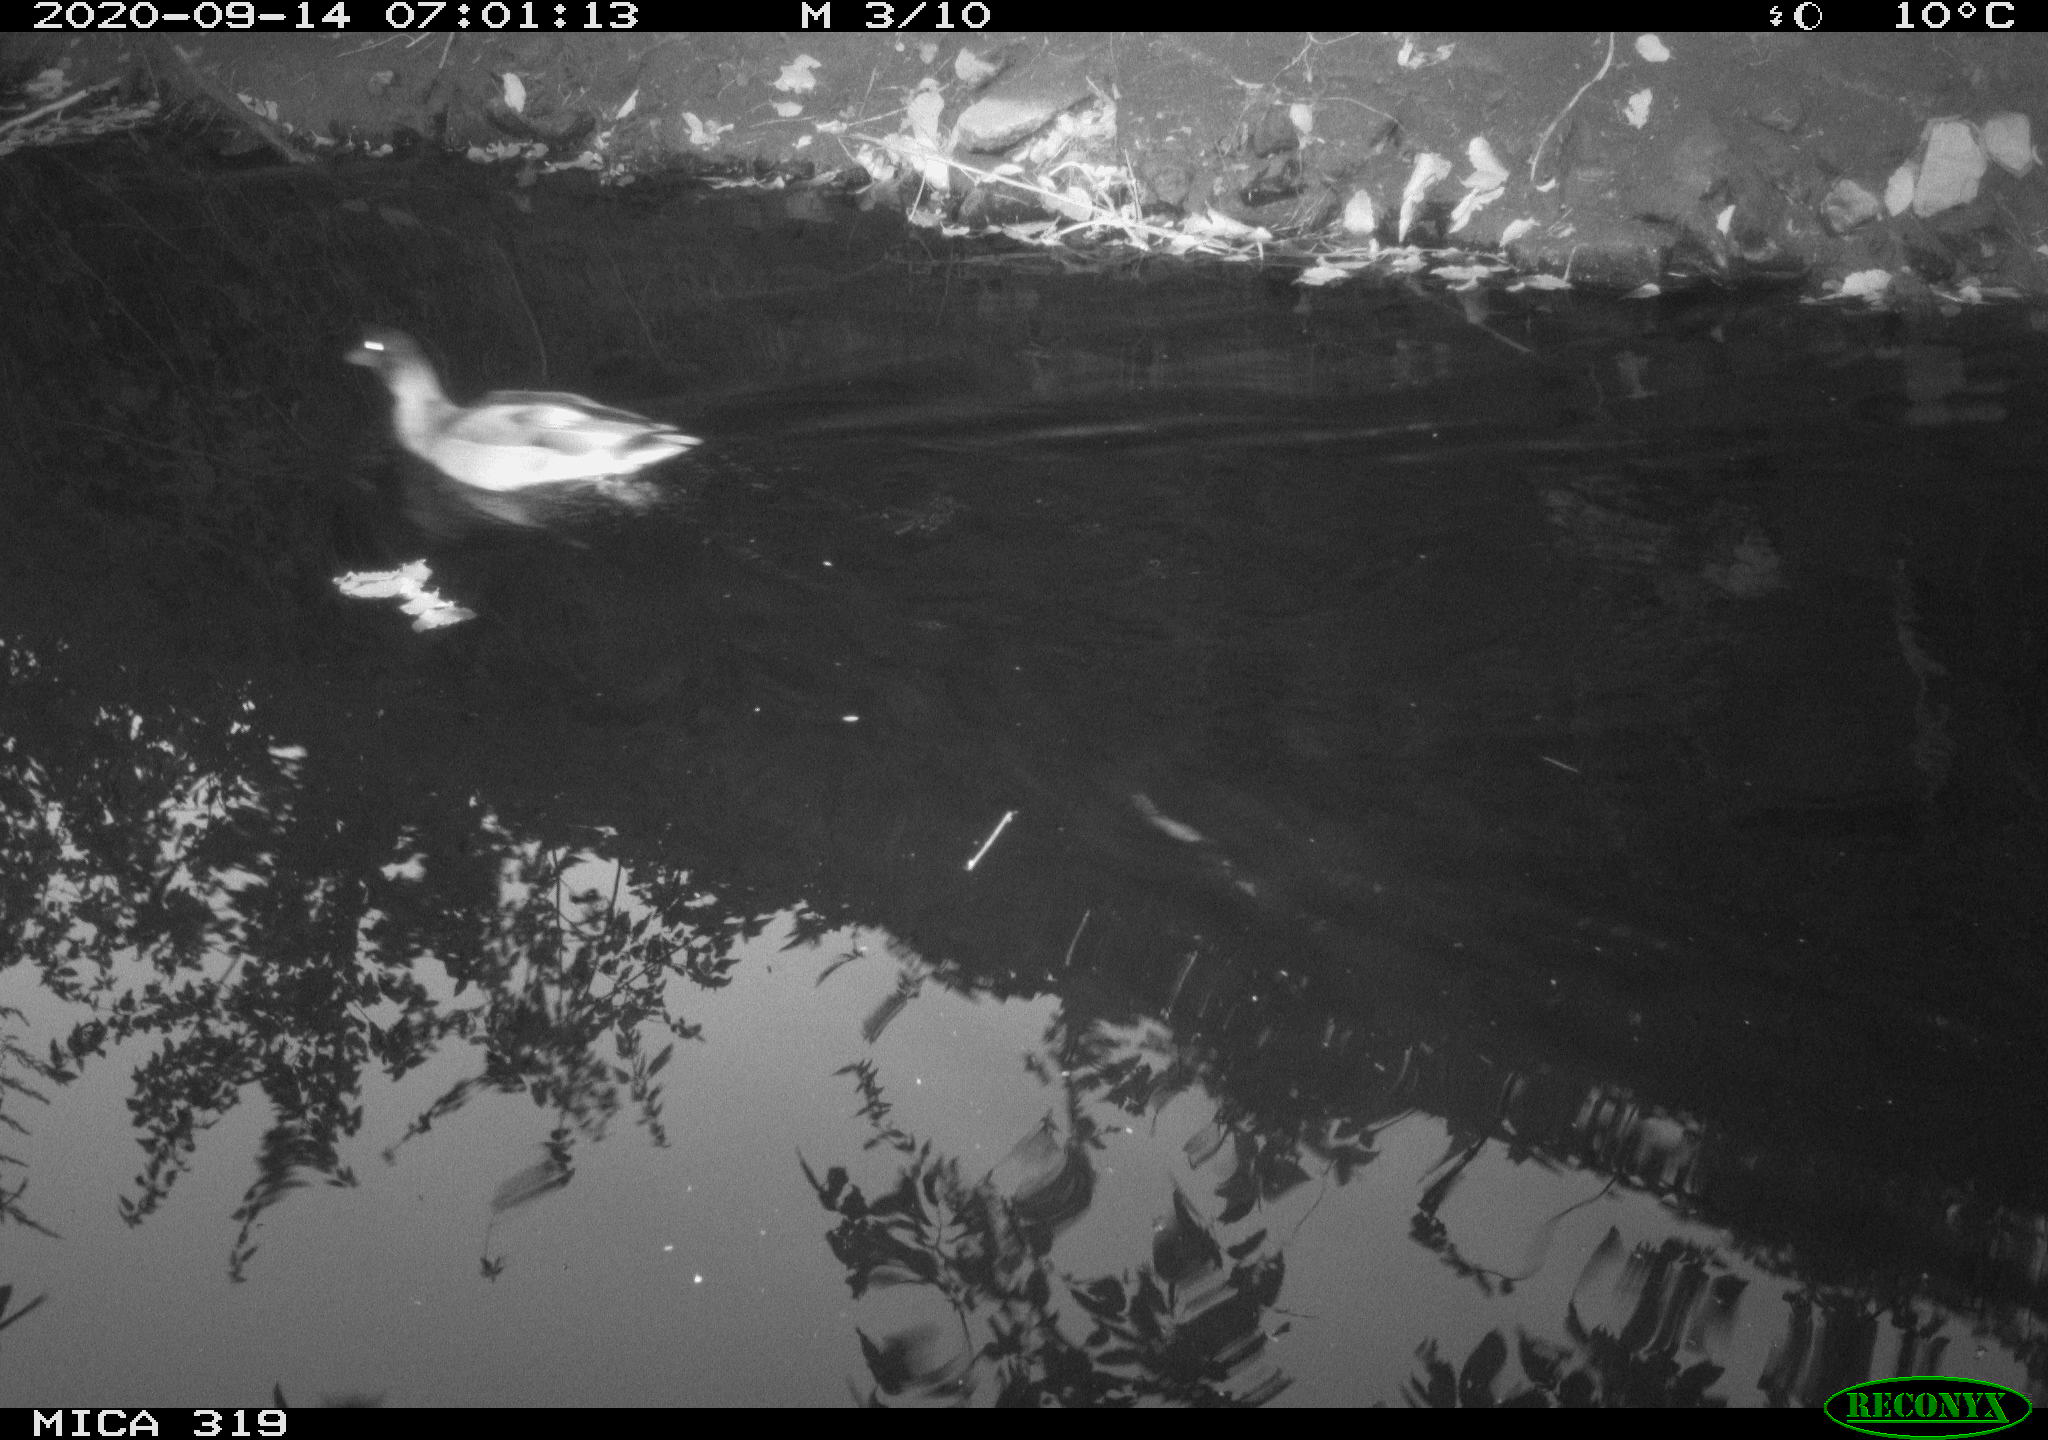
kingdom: Animalia
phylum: Chordata
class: Aves
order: Anseriformes
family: Anatidae
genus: Anas
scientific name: Anas platyrhynchos
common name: Mallard
